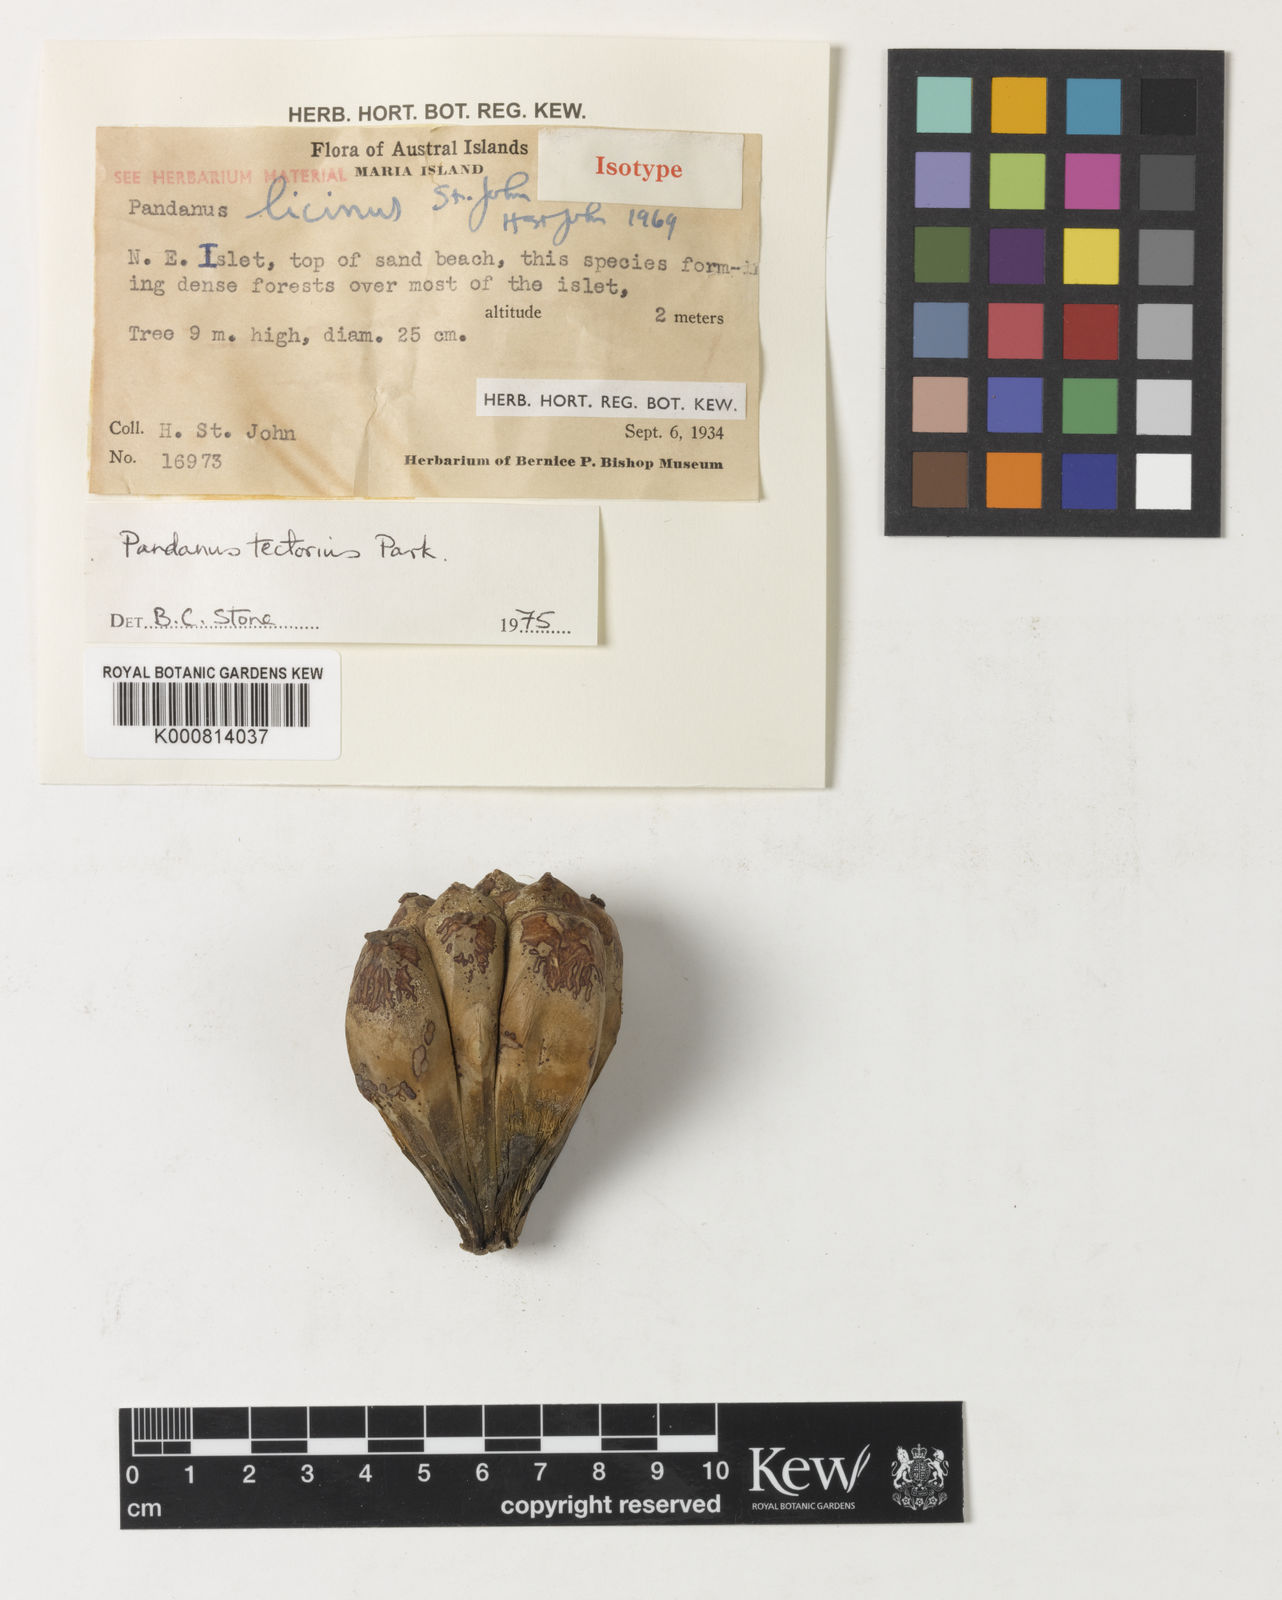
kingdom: Plantae
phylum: Tracheophyta
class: Liliopsida
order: Pandanales
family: Pandanaceae
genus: Pandanus
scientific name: Pandanus tectorius
